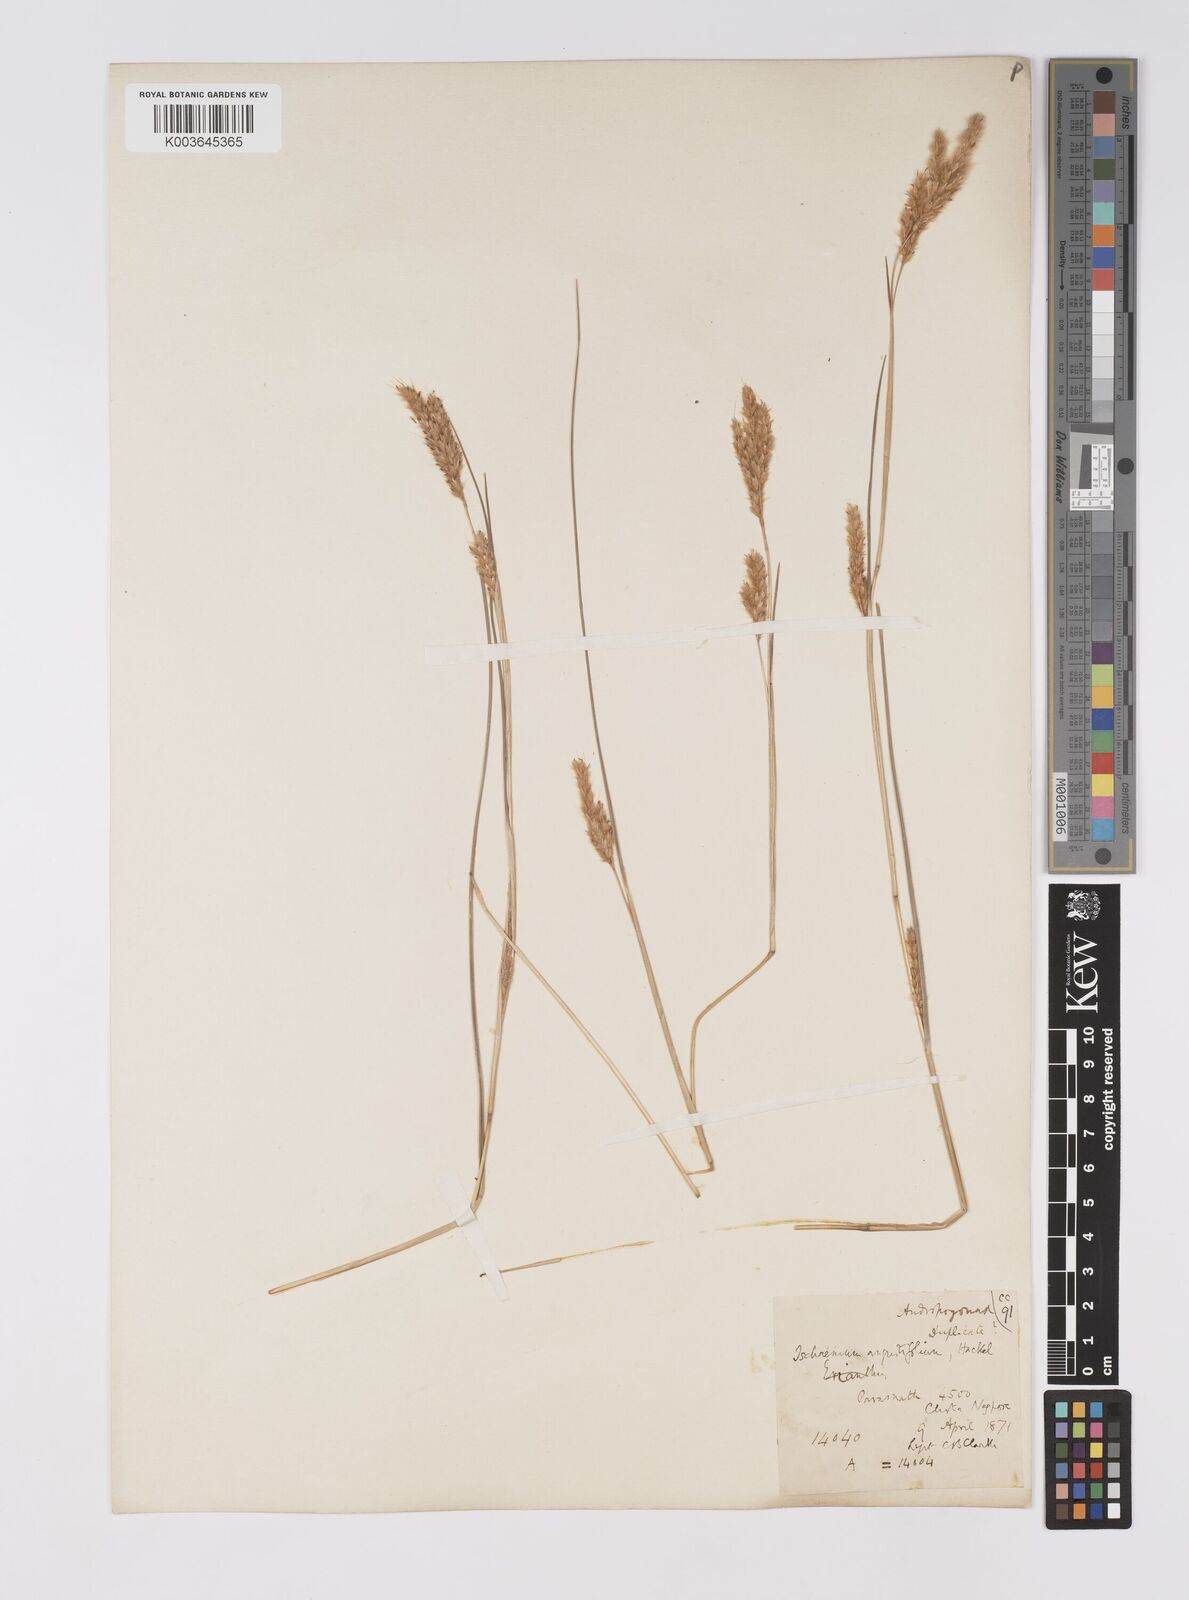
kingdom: Plantae
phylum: Tracheophyta
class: Liliopsida
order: Poales
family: Poaceae
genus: Eulaliopsis
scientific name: Eulaliopsis binata
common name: Baib grass
